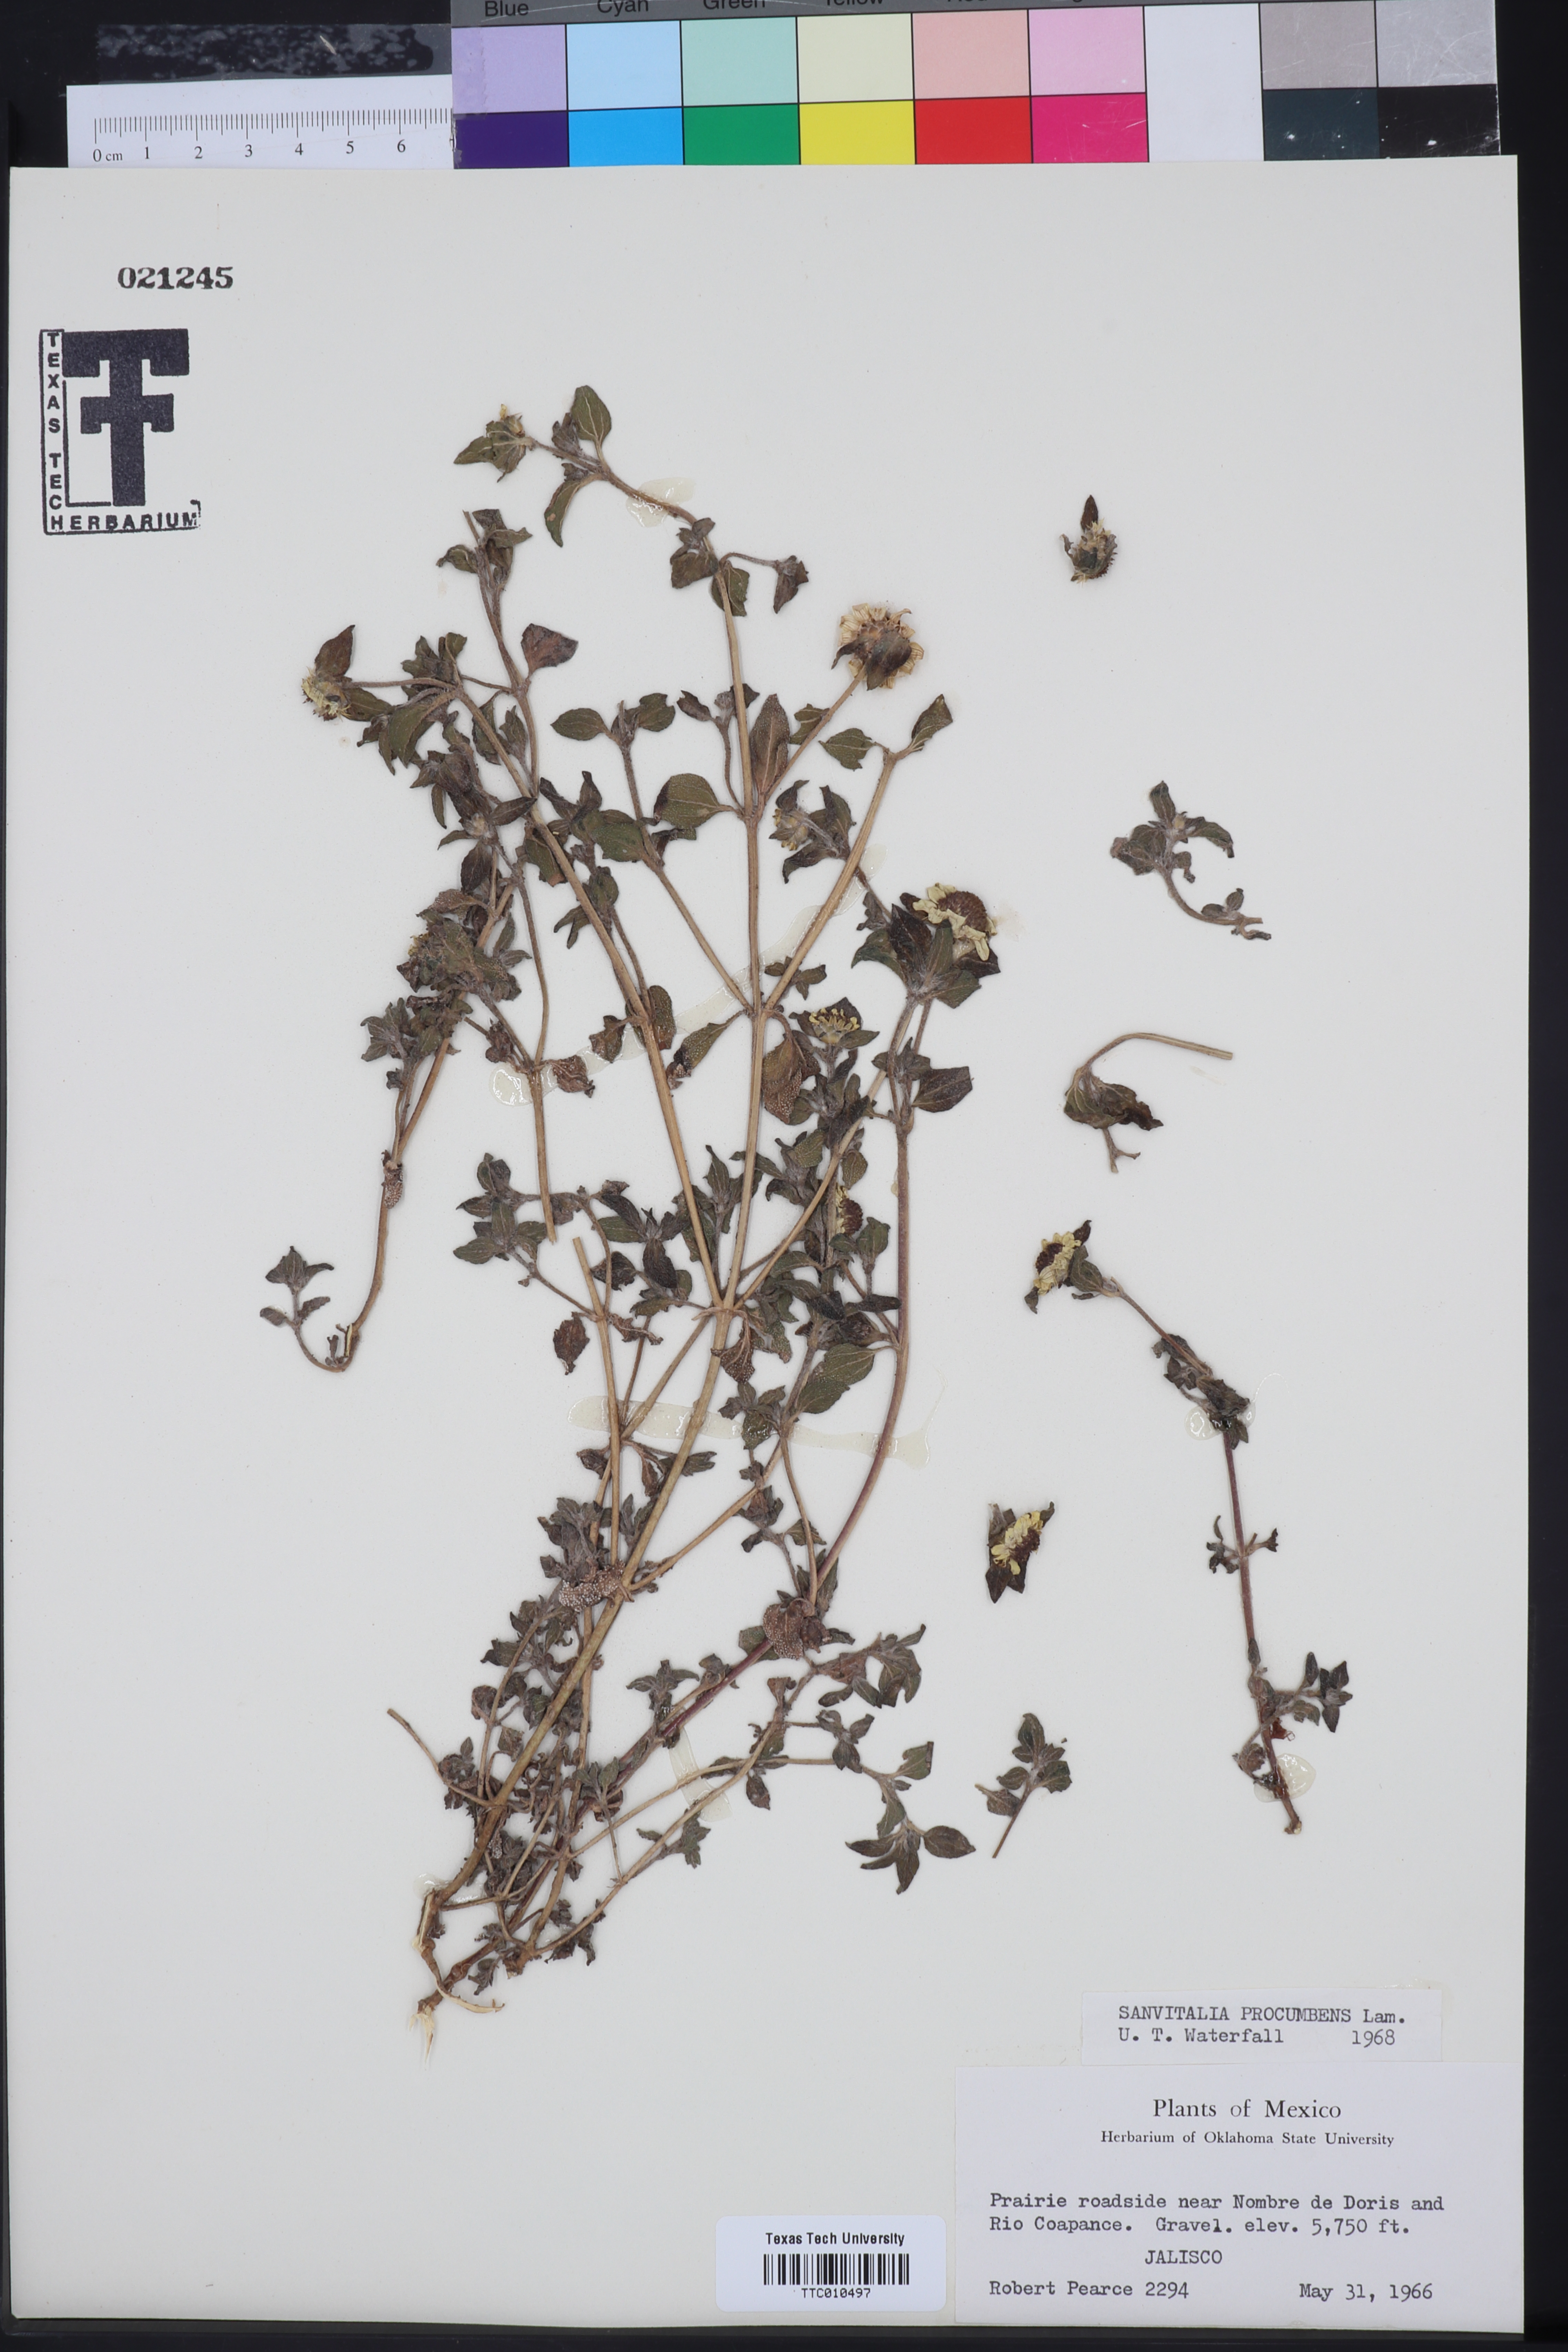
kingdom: Plantae
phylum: Tracheophyta
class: Magnoliopsida
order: Asterales
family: Asteraceae
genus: Sanvitalia
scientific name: Sanvitalia procumbens
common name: Mexican creeping zinnia
